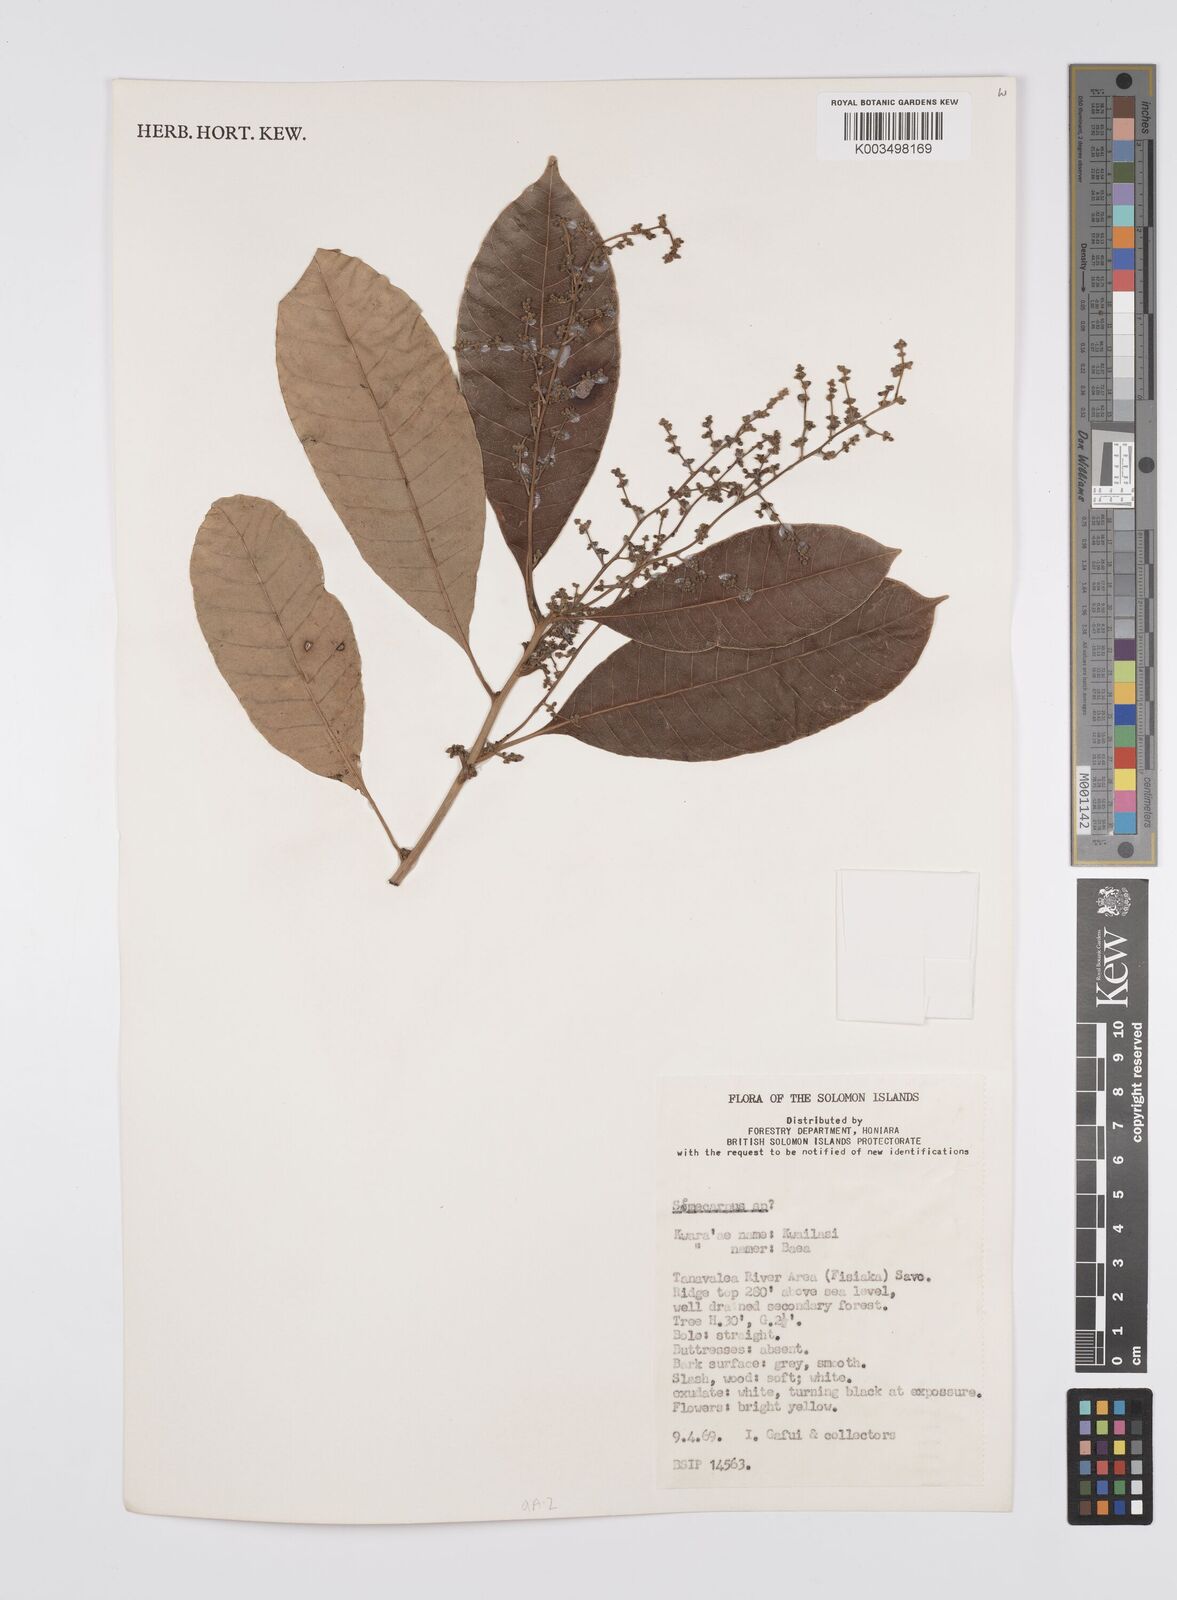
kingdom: Plantae
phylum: Tracheophyta
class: Magnoliopsida
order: Sapindales
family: Anacardiaceae
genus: Semecarpus
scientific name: Semecarpus
